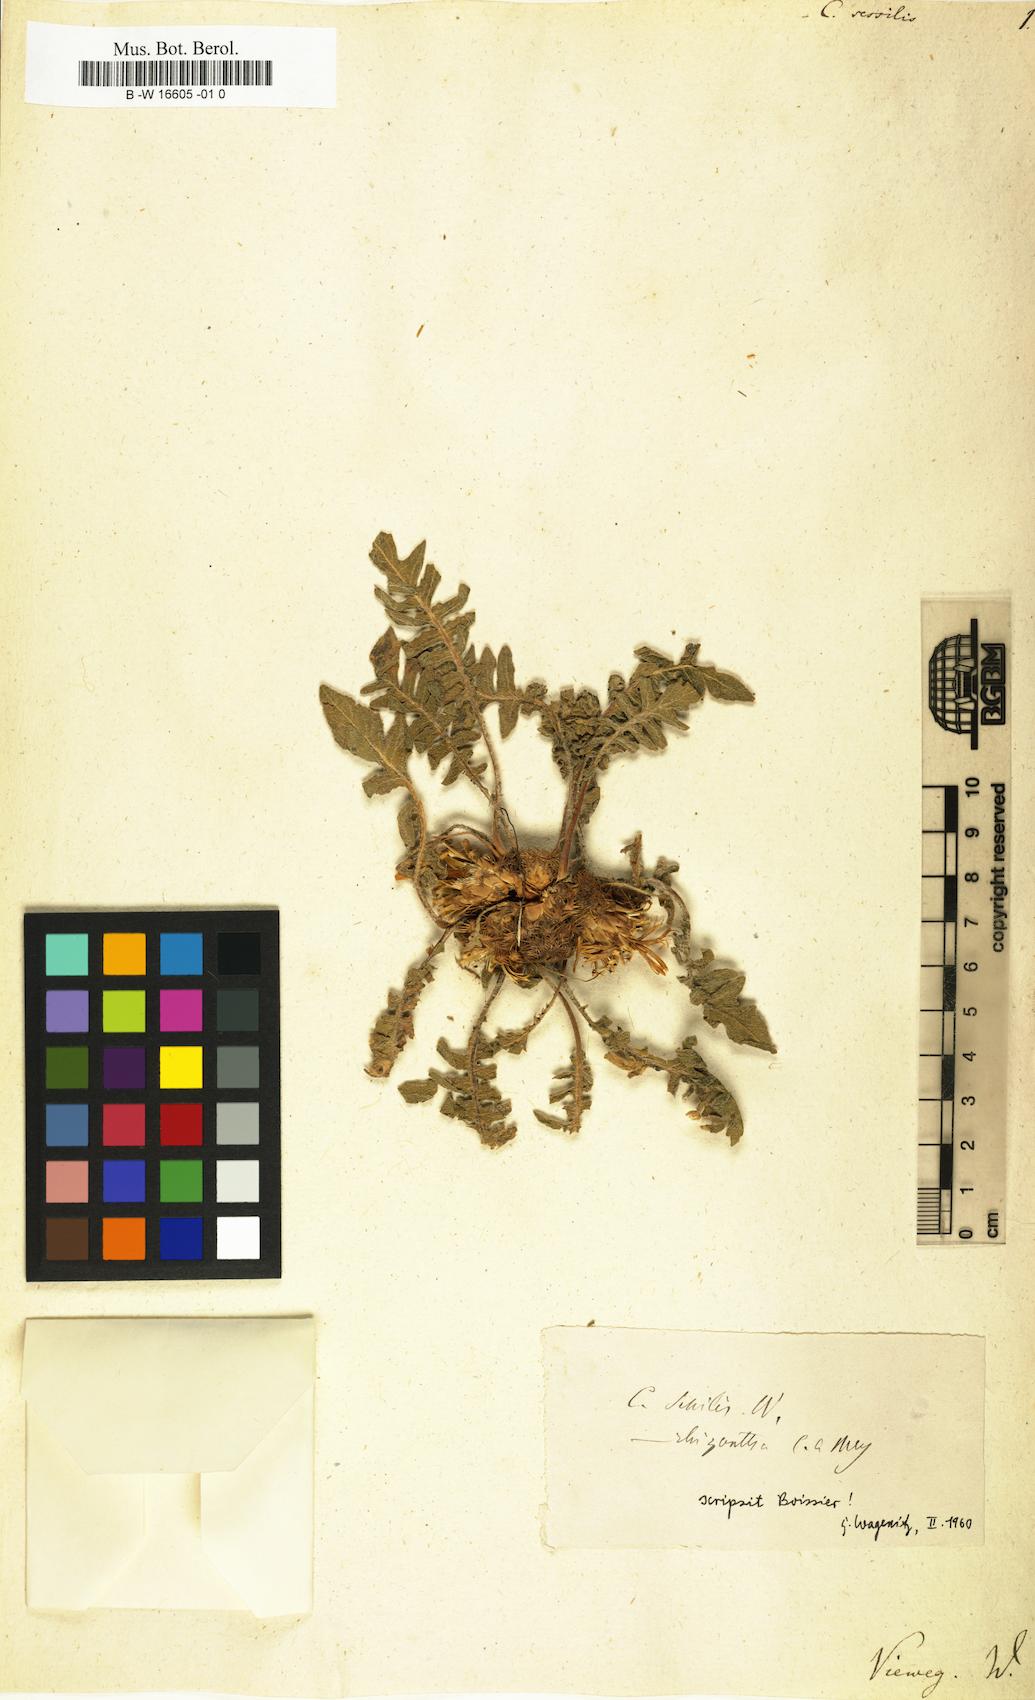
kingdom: Plantae
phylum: Tracheophyta
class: Magnoliopsida
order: Asterales
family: Asteraceae
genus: Centaurea
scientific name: Centaurea sessilis
